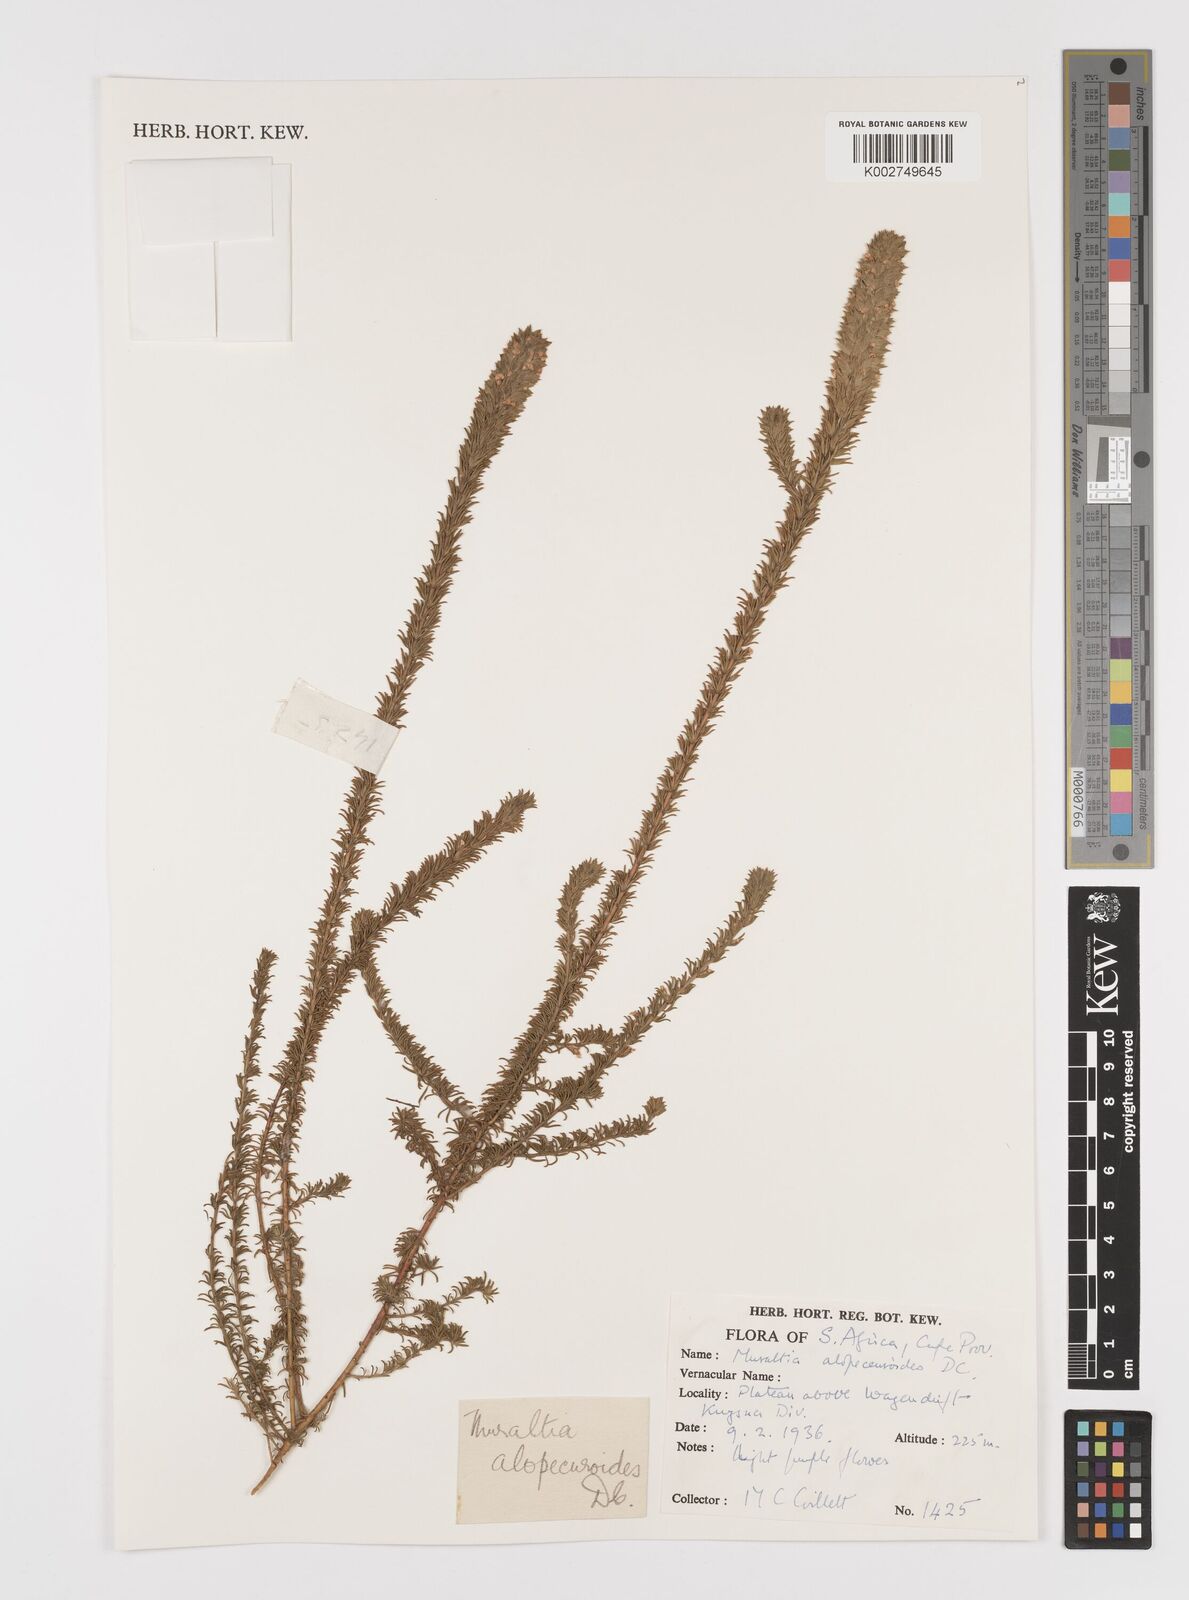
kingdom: Plantae
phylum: Tracheophyta
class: Magnoliopsida
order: Fabales
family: Polygalaceae
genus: Muraltia
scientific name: Muraltia alopecuroides
